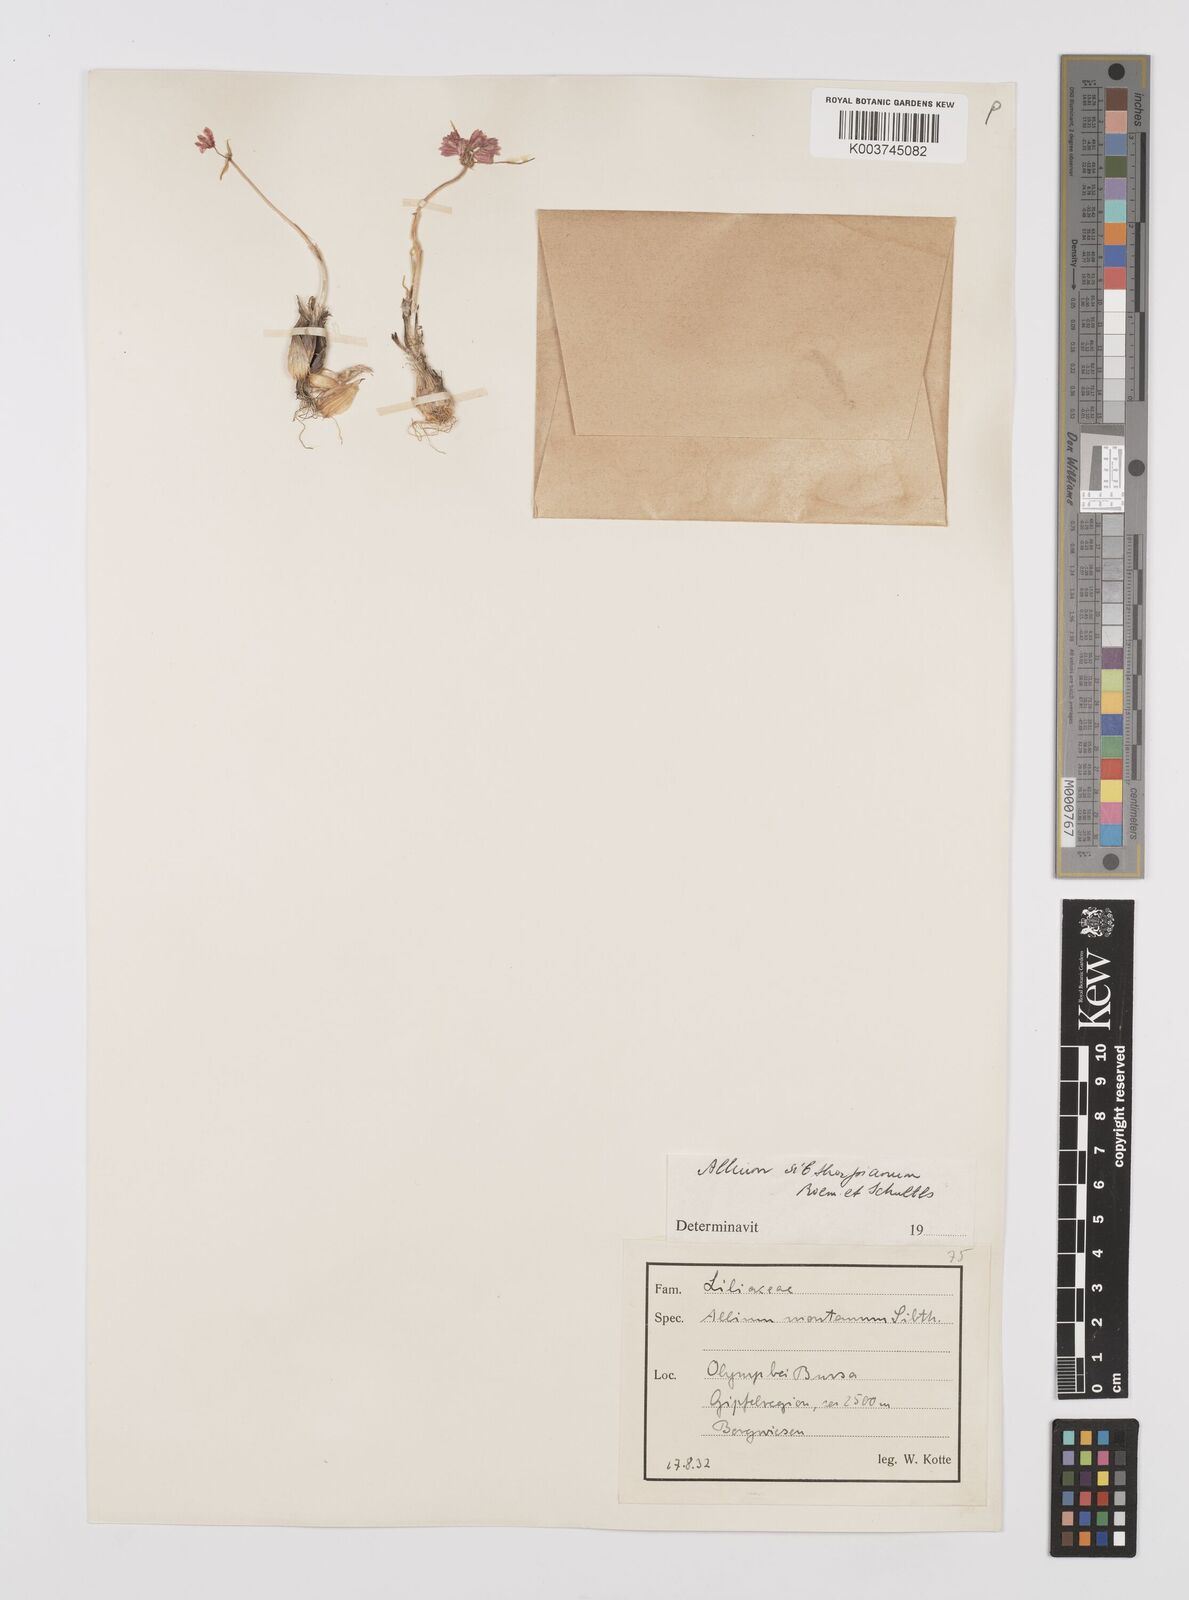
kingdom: Plantae
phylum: Tracheophyta
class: Liliopsida
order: Asparagales
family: Amaryllidaceae
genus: Allium
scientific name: Allium sibthorpianum
